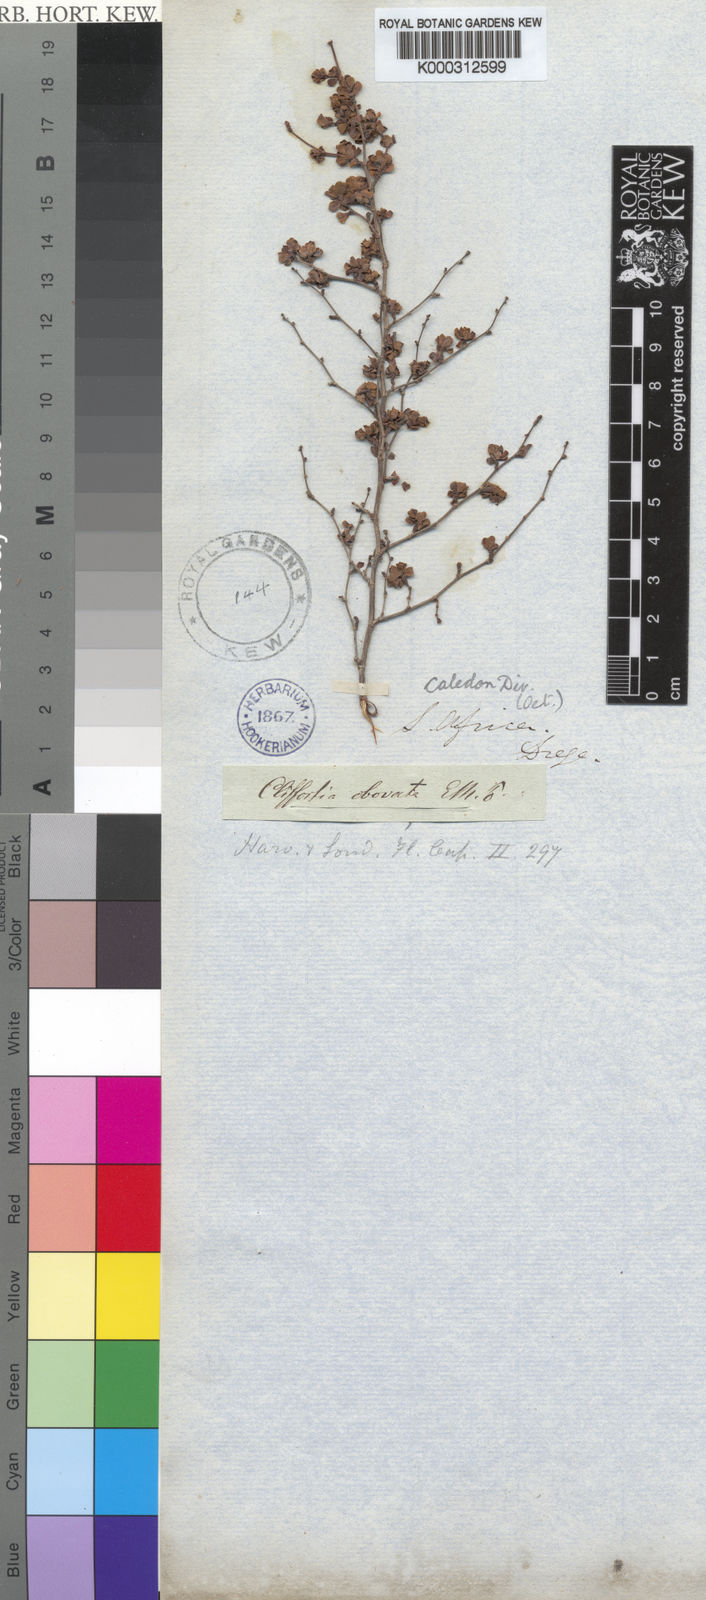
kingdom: Plantae
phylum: Tracheophyta
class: Magnoliopsida
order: Rosales
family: Rosaceae
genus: Cliffortia
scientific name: Cliffortia
